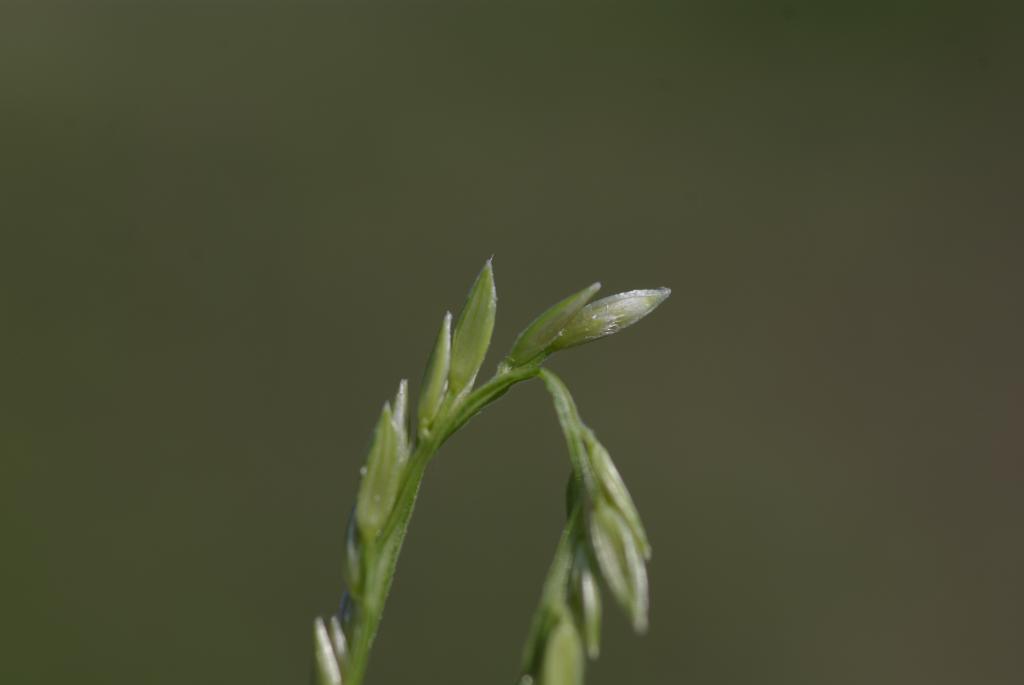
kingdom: Plantae
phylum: Tracheophyta
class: Liliopsida
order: Poales
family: Poaceae
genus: Digitaria
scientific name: Digitaria setigera
